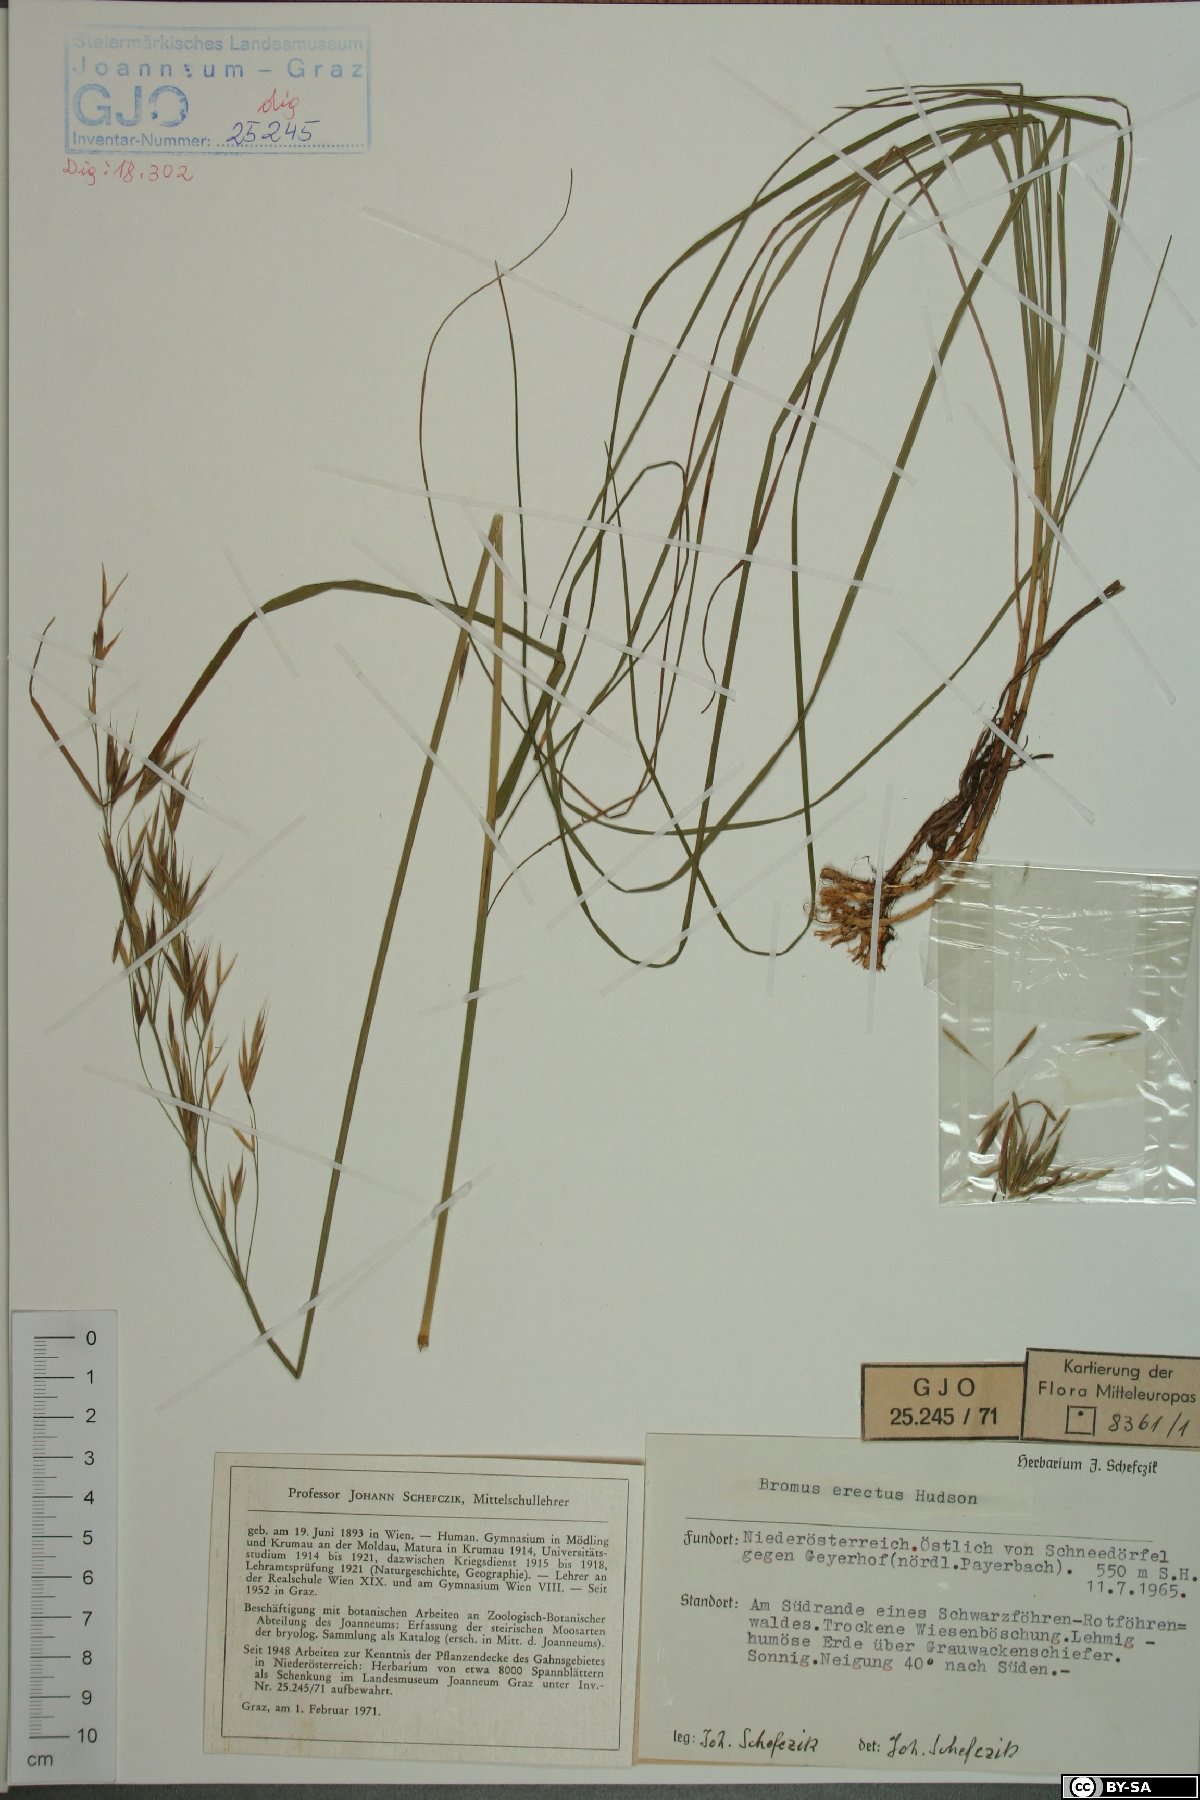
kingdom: Plantae
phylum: Tracheophyta
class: Liliopsida
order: Poales
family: Poaceae
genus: Bromus
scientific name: Bromus erectus
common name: Erect brome
